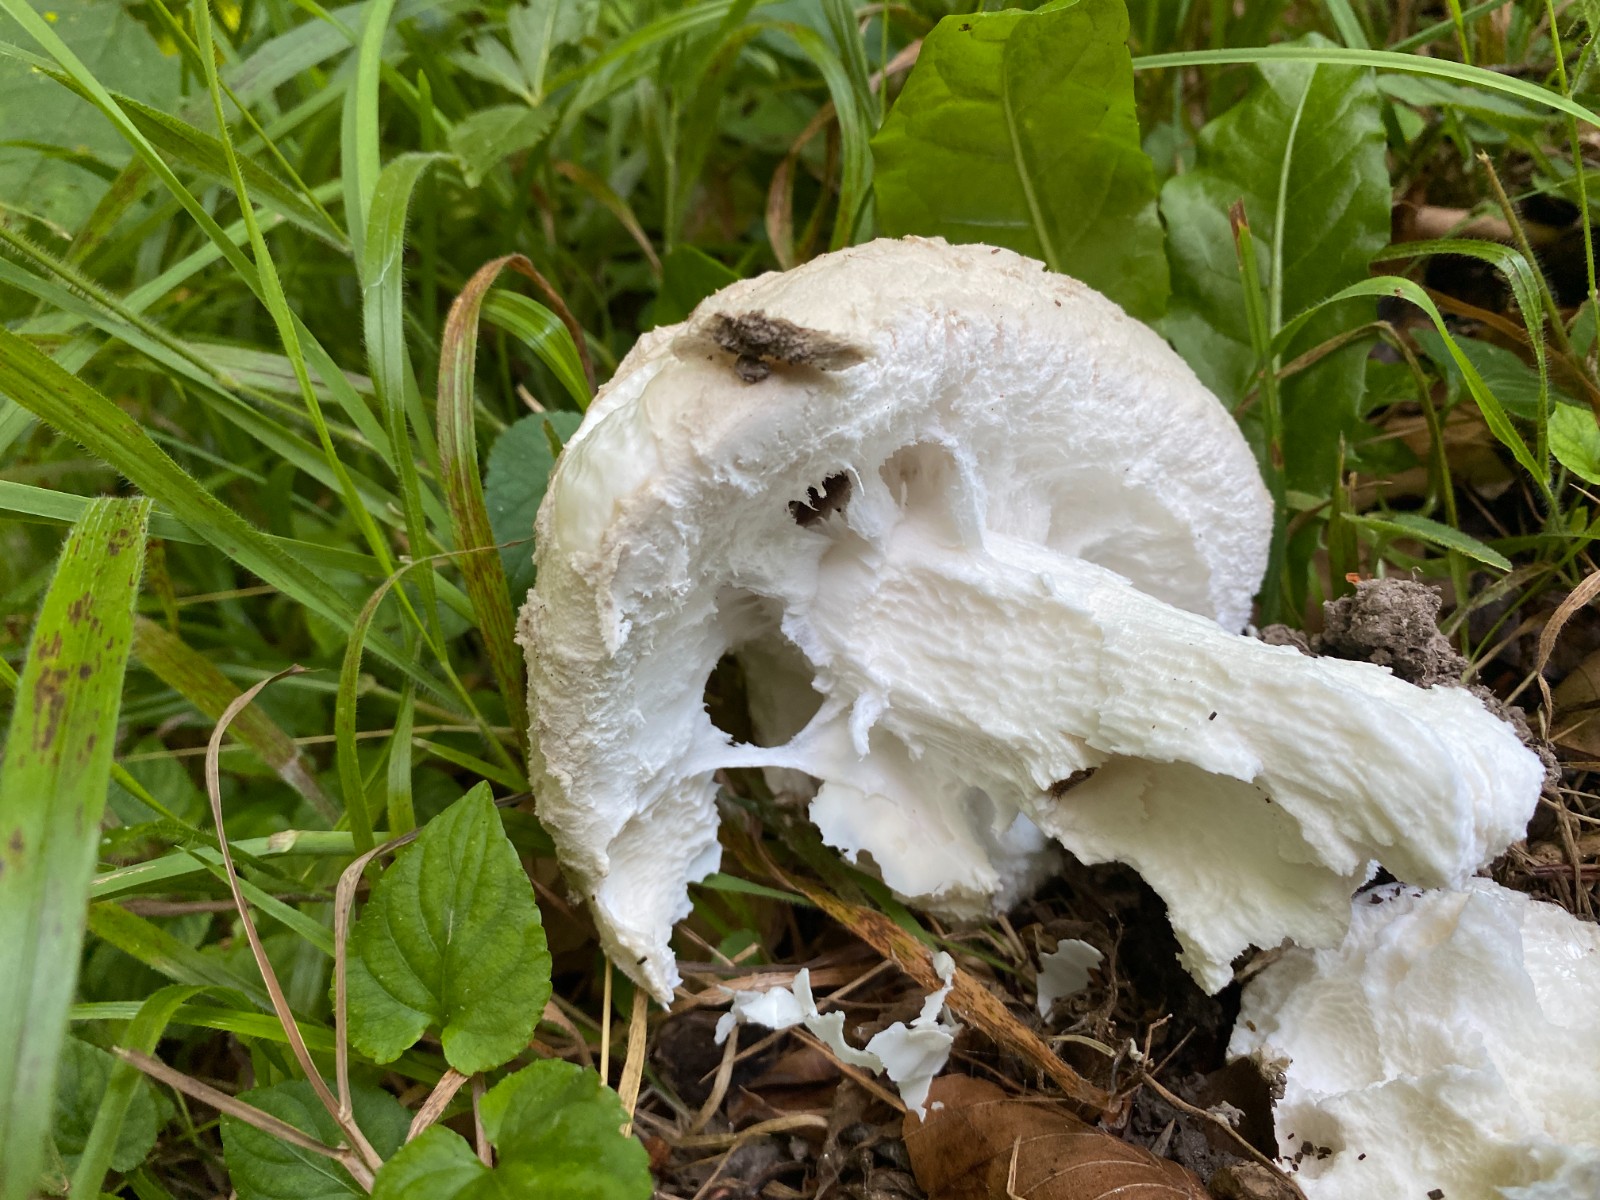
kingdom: Fungi
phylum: Basidiomycota
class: Agaricomycetes
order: Agaricales
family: Amanitaceae
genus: Amanita
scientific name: Amanita
